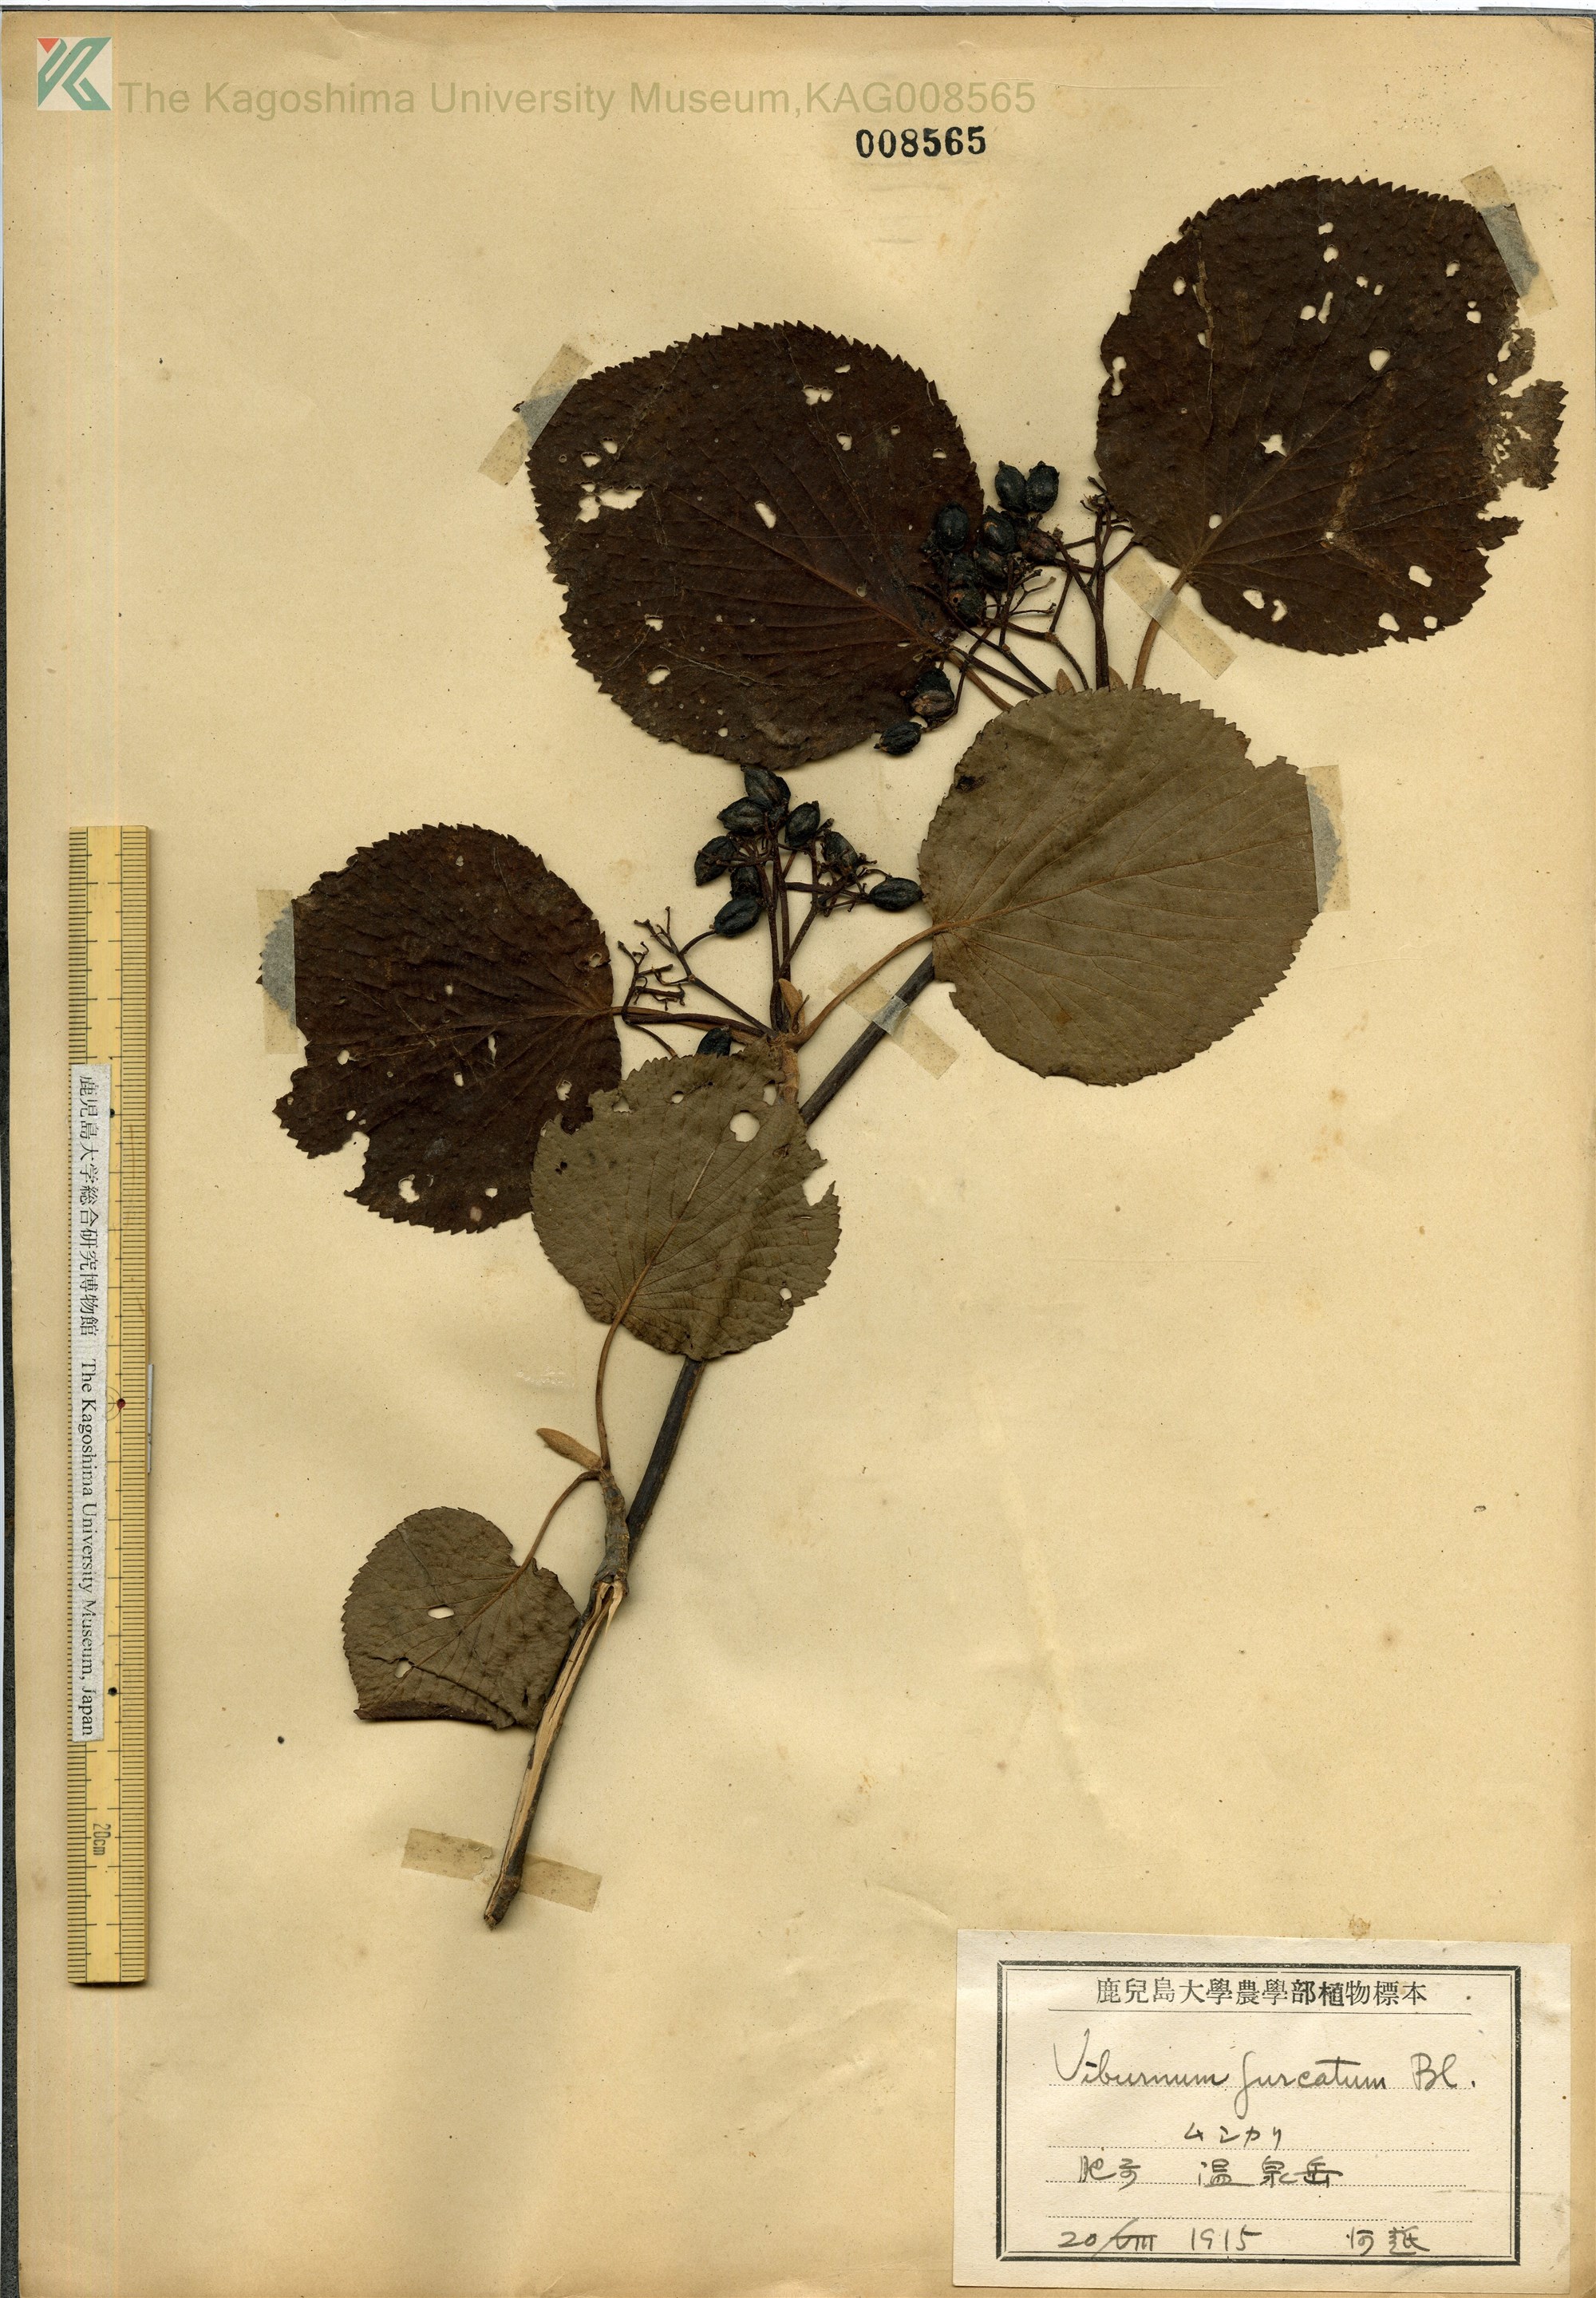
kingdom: Plantae
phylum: Tracheophyta
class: Magnoliopsida
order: Dipsacales
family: Viburnaceae
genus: Viburnum
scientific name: Viburnum furcatum
